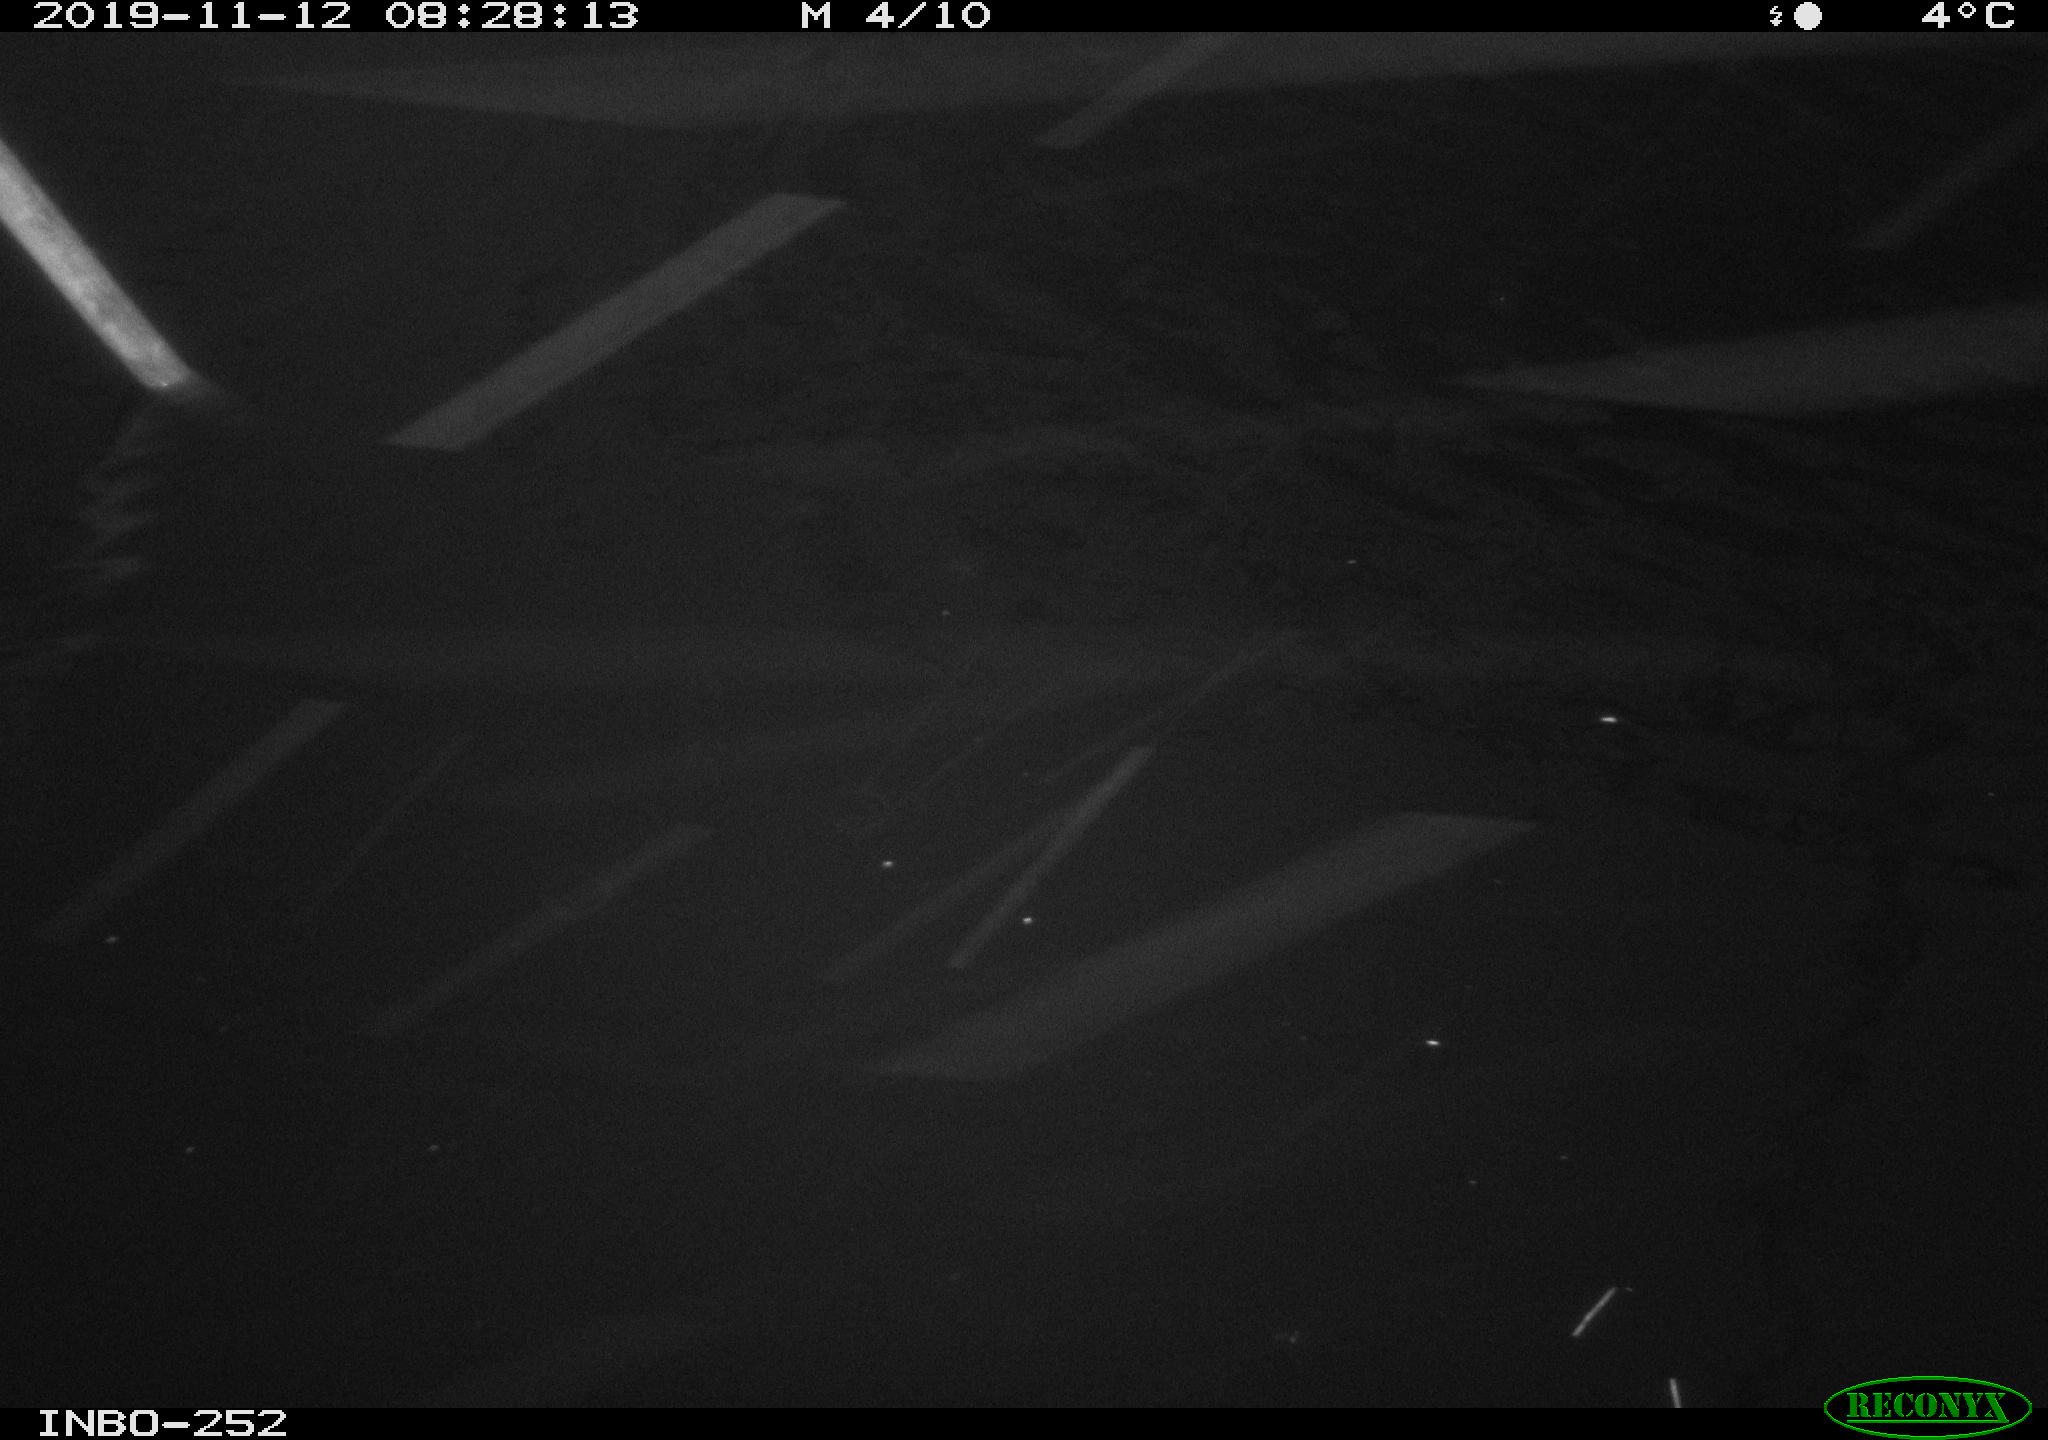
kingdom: Animalia
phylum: Chordata
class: Aves
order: Anseriformes
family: Anatidae
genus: Anas
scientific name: Anas platyrhynchos
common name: Mallard
